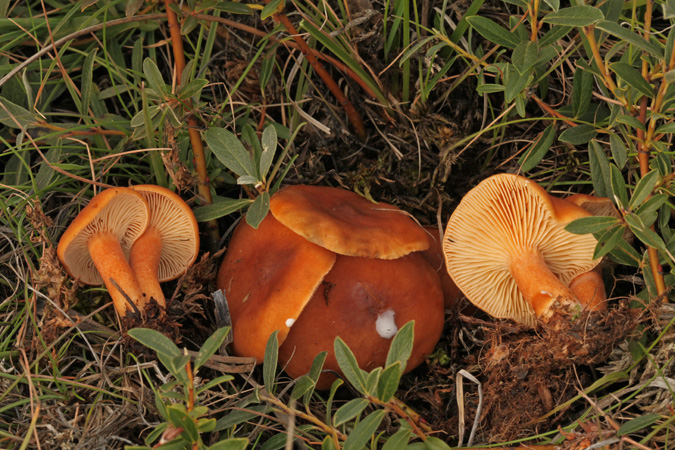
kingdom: Fungi
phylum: Basidiomycota
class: Agaricomycetes
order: Russulales
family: Russulaceae
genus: Lactarius
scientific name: Lactarius aurantiacus
